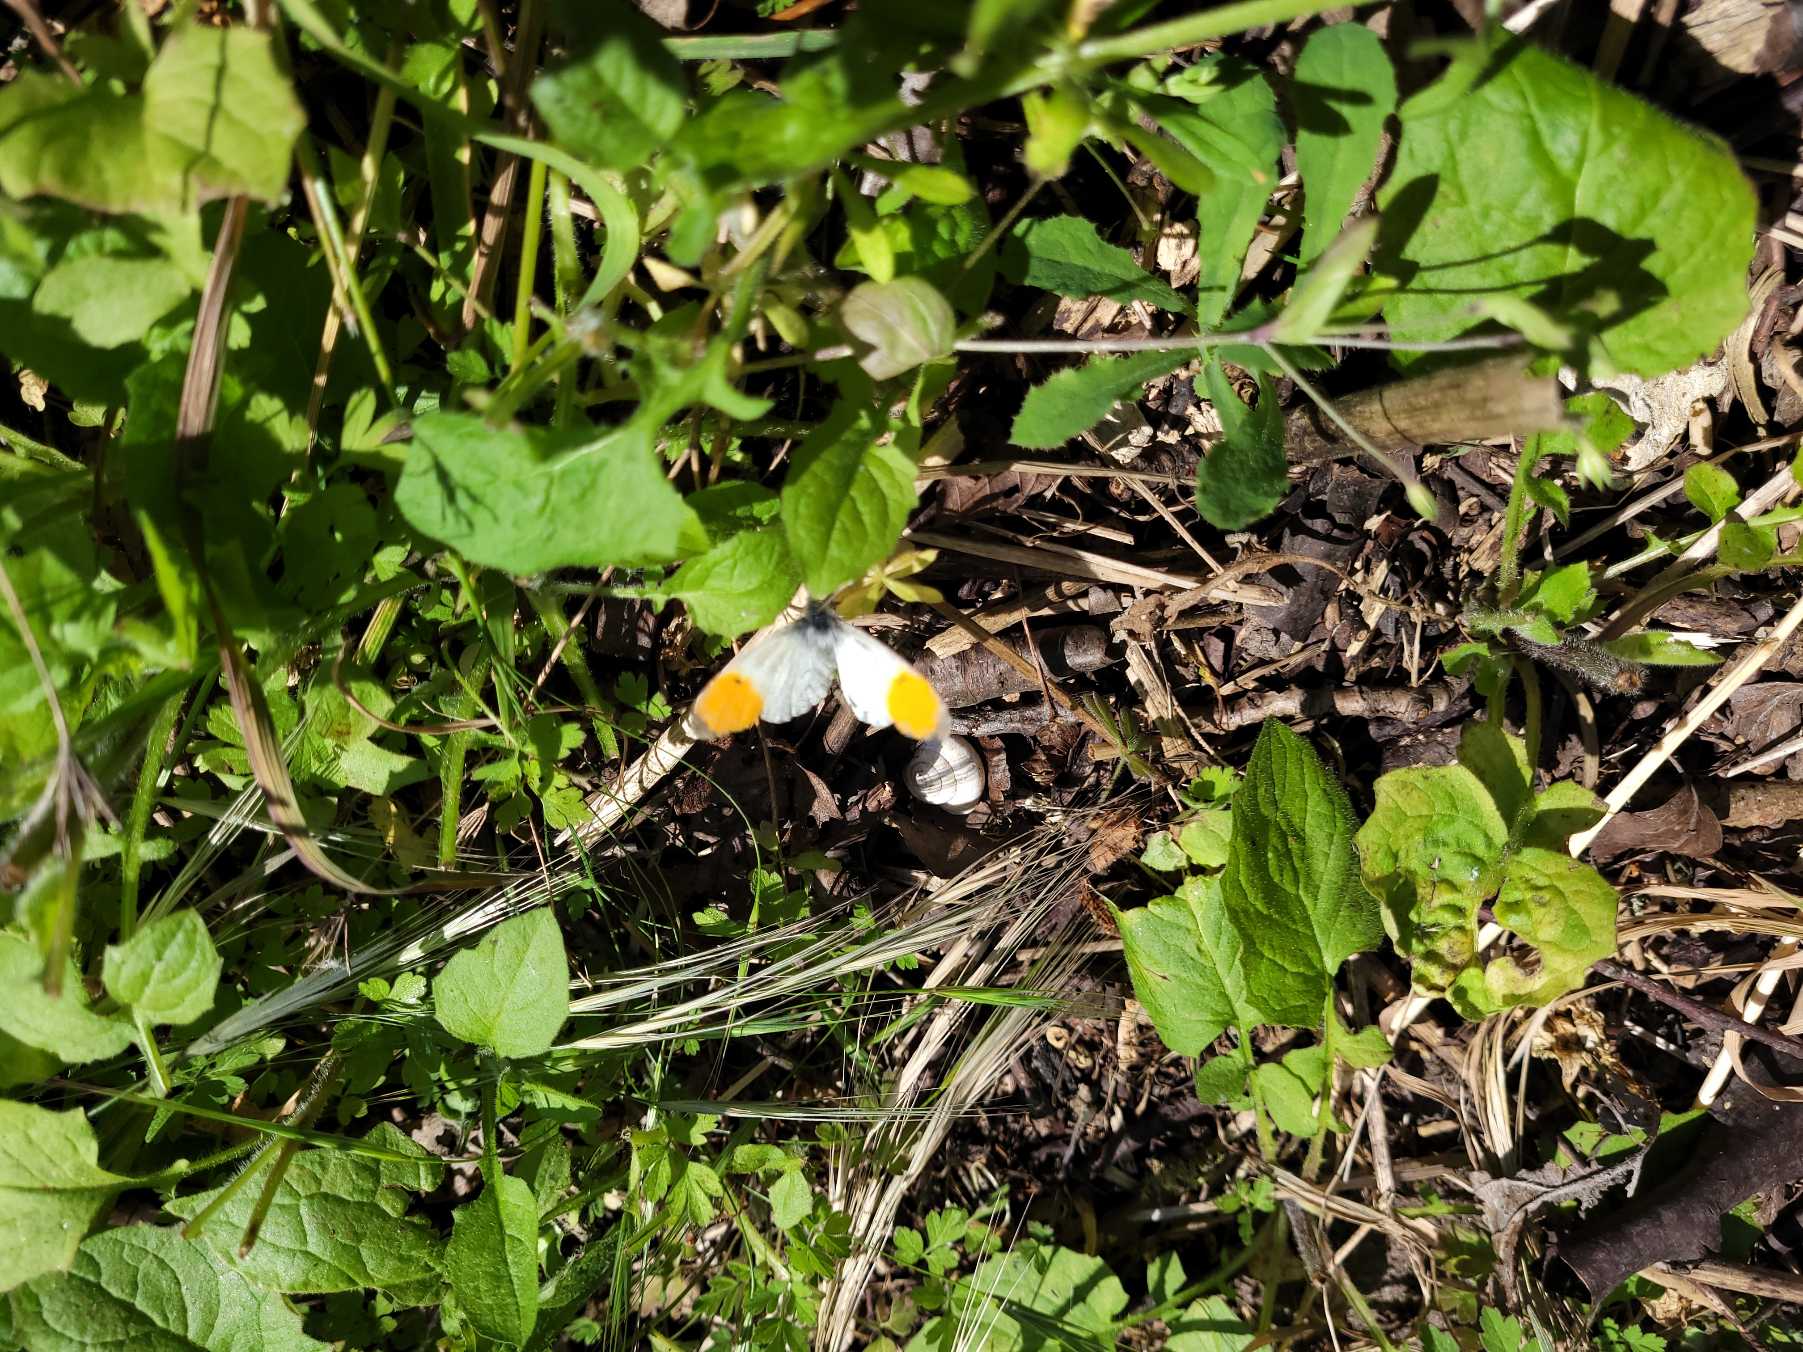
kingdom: Animalia
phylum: Arthropoda
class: Insecta
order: Lepidoptera
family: Pieridae
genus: Anthocharis
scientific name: Anthocharis cardamines
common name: Aurora
